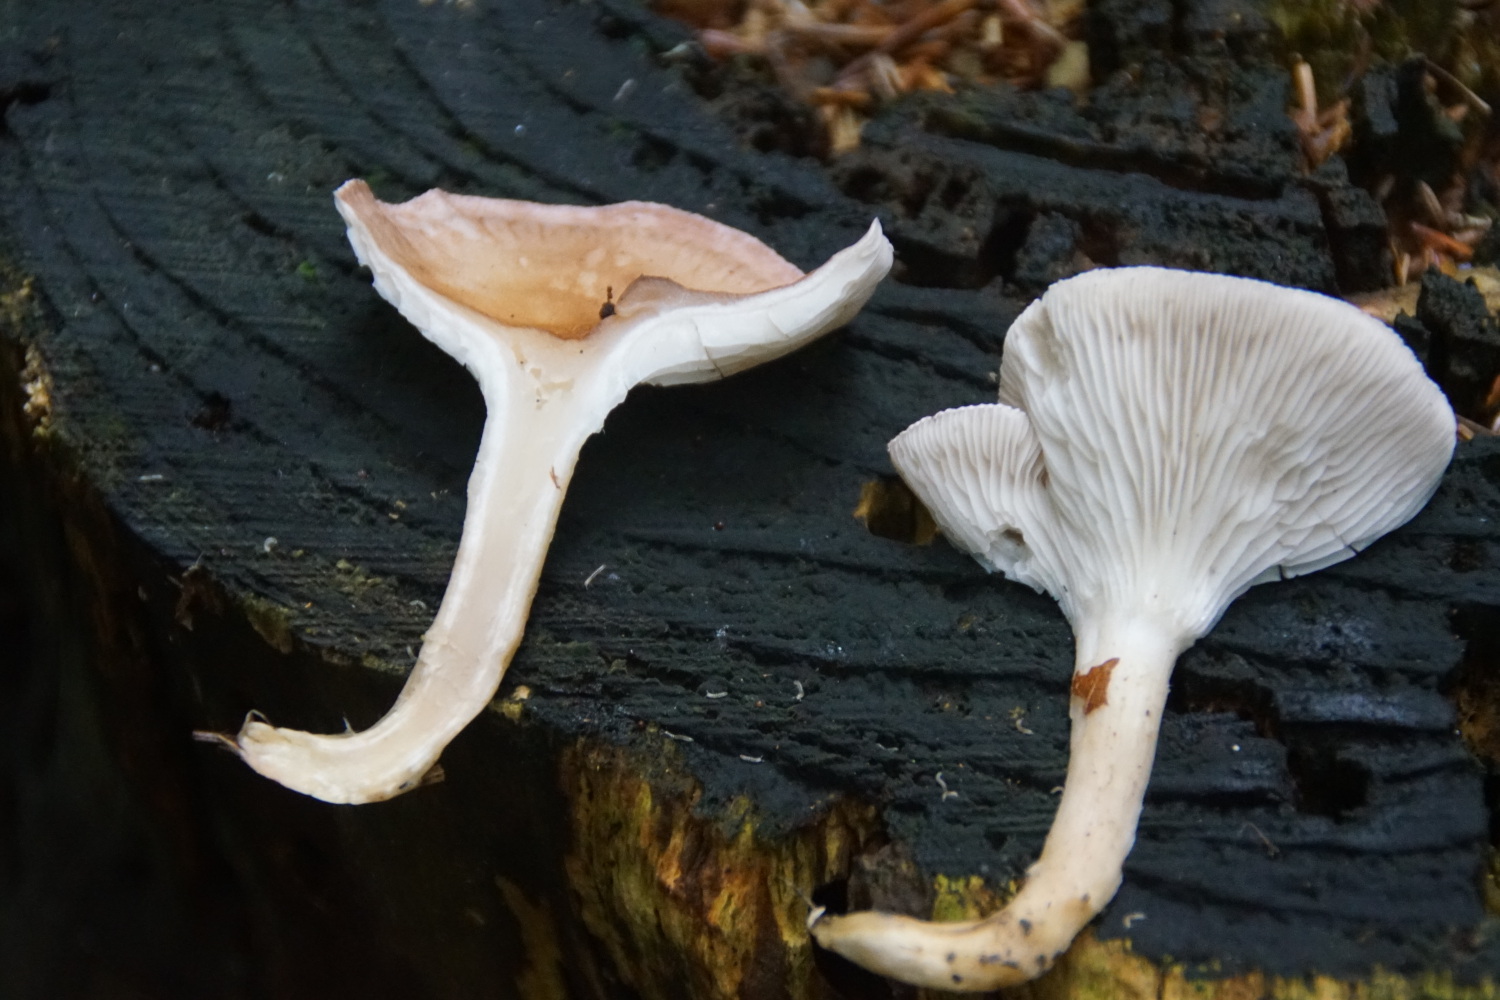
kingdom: Fungi
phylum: Basidiomycota
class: Agaricomycetes
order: Agaricales
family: Tricholomataceae
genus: Infundibulicybe
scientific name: Infundibulicybe gibba
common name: almindelig tragthat
